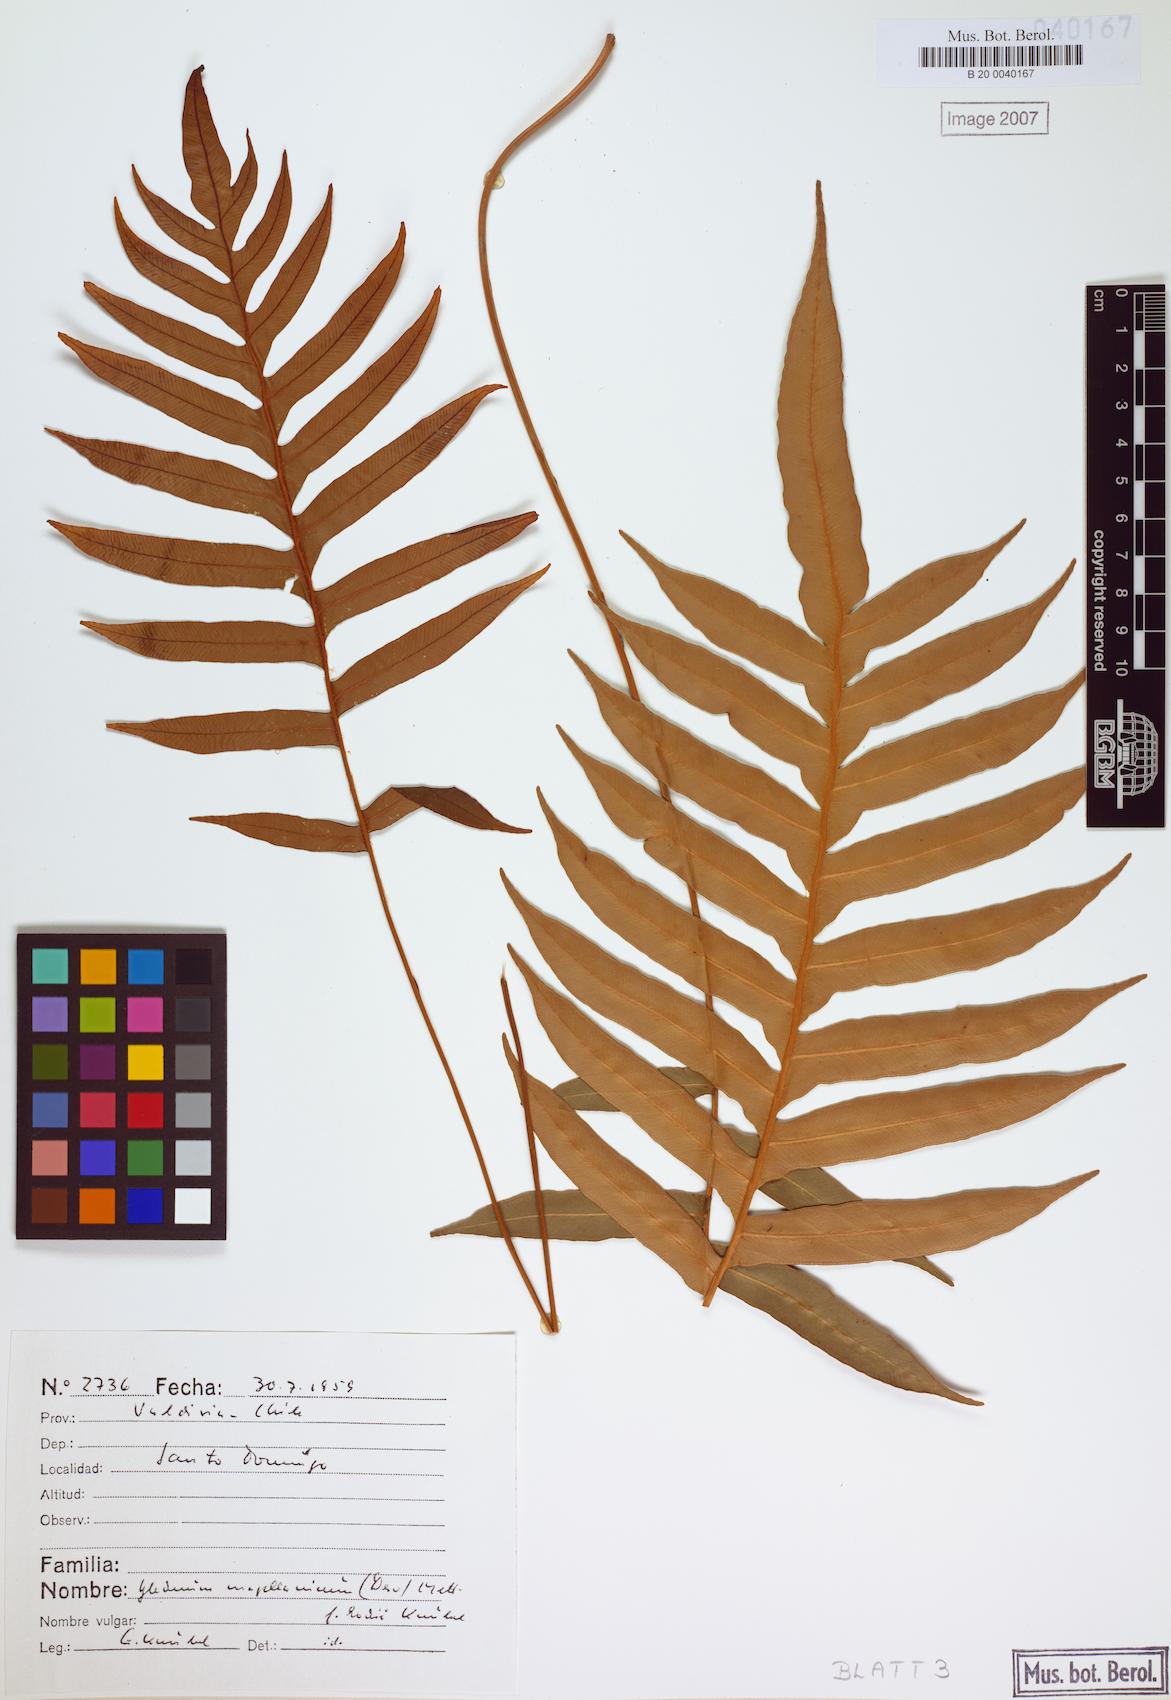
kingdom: Plantae
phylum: Tracheophyta
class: Polypodiopsida
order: Polypodiales
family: Blechnaceae
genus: Lomariocycas
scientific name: Lomariocycas magellanica
